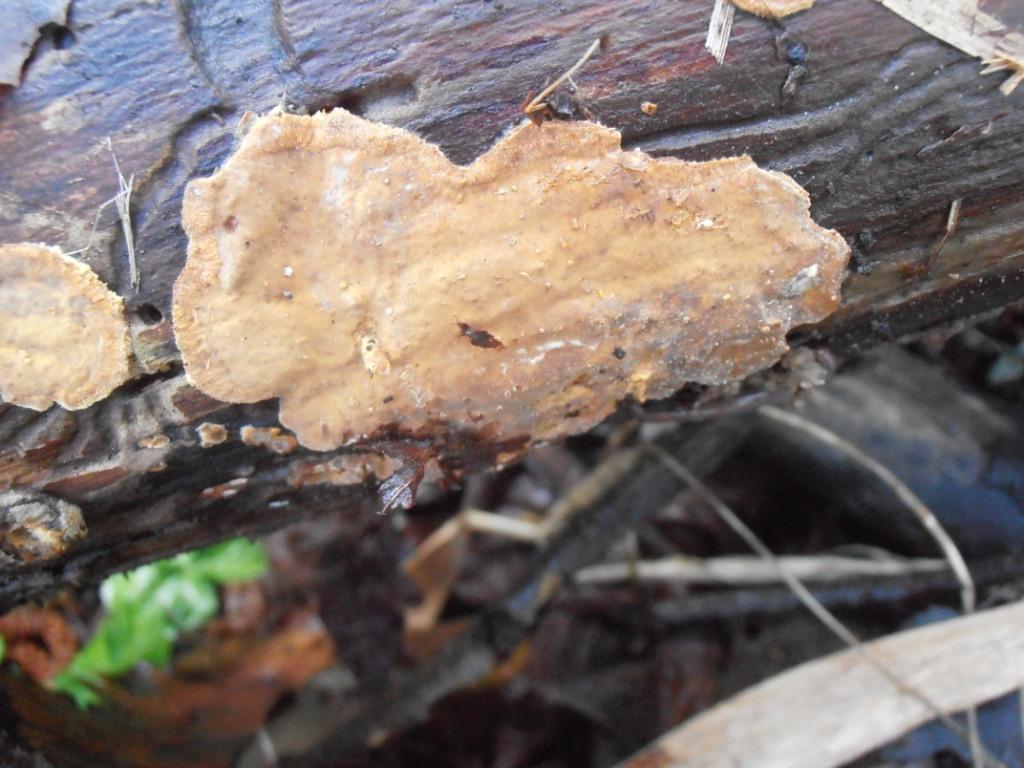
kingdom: Fungi
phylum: Basidiomycota
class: Agaricomycetes
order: Russulales
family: Stereaceae
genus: Stereum
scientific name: Stereum hirsutum
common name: håret lædersvamp
